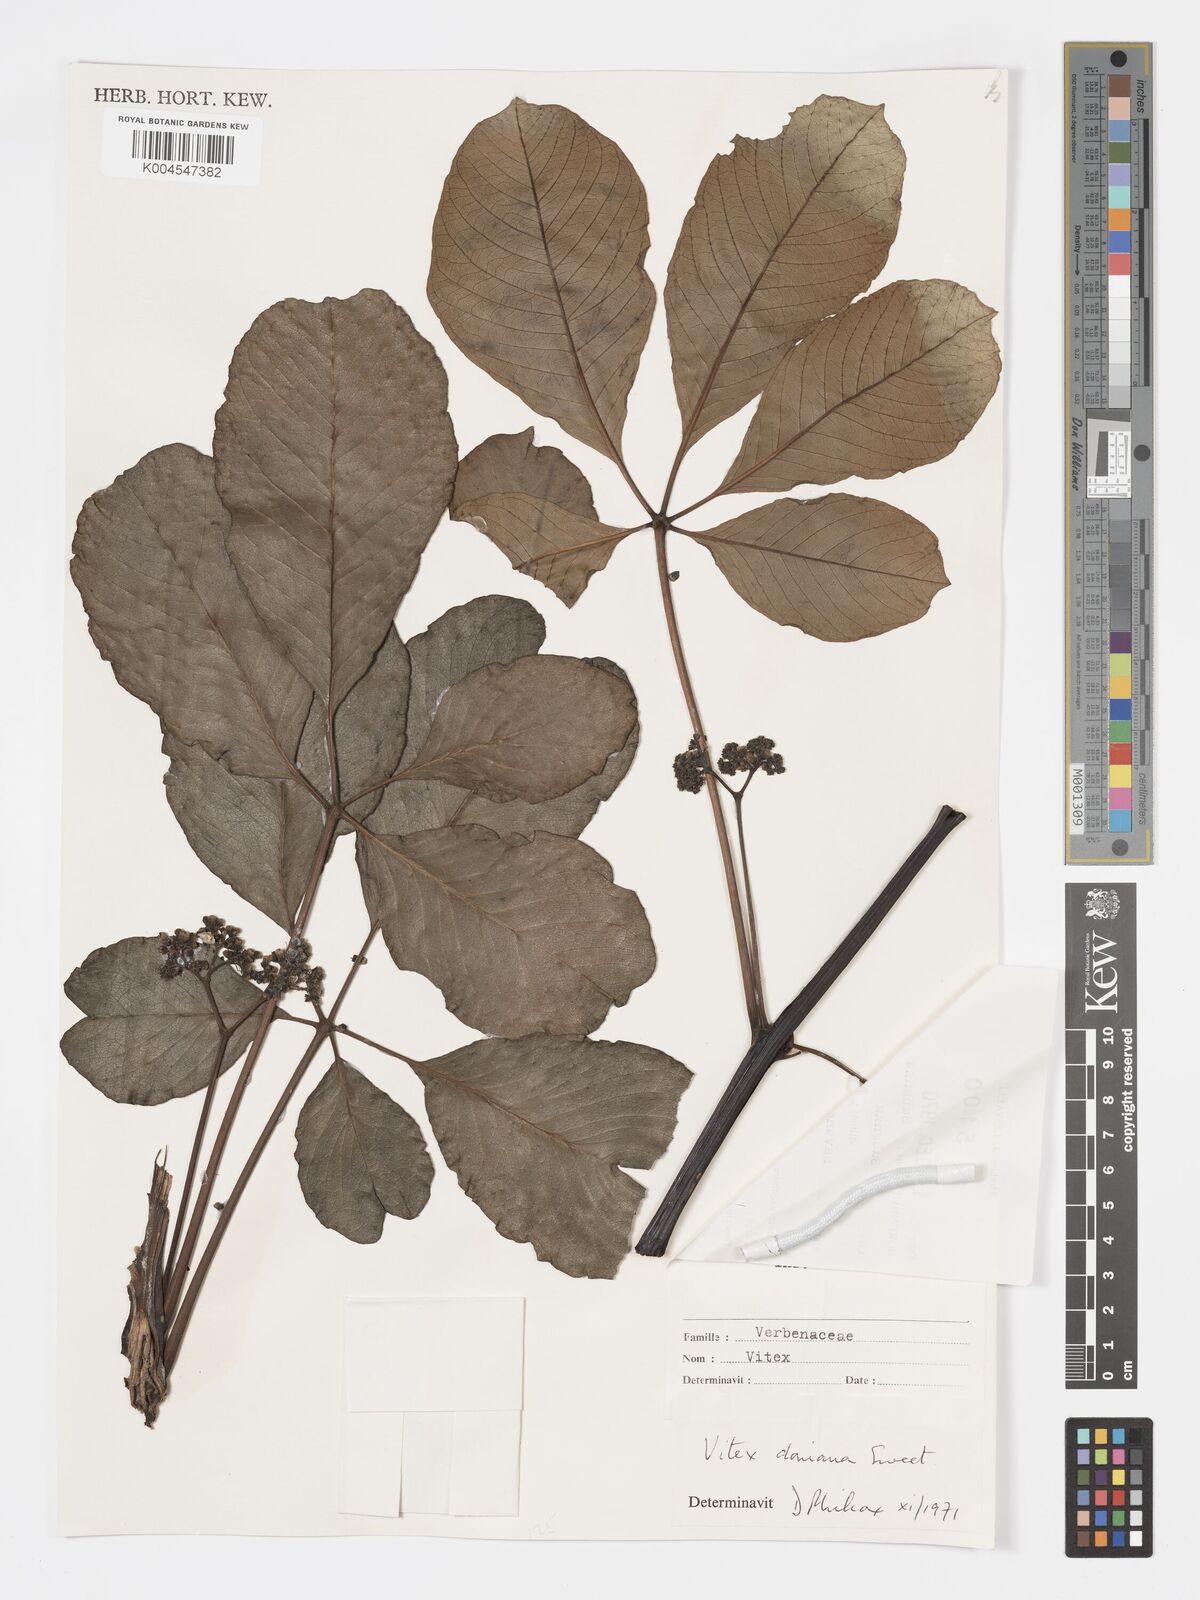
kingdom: Plantae
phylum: Tracheophyta
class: Magnoliopsida
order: Lamiales
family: Lamiaceae
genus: Vitex
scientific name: Vitex doniana
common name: Black plum
